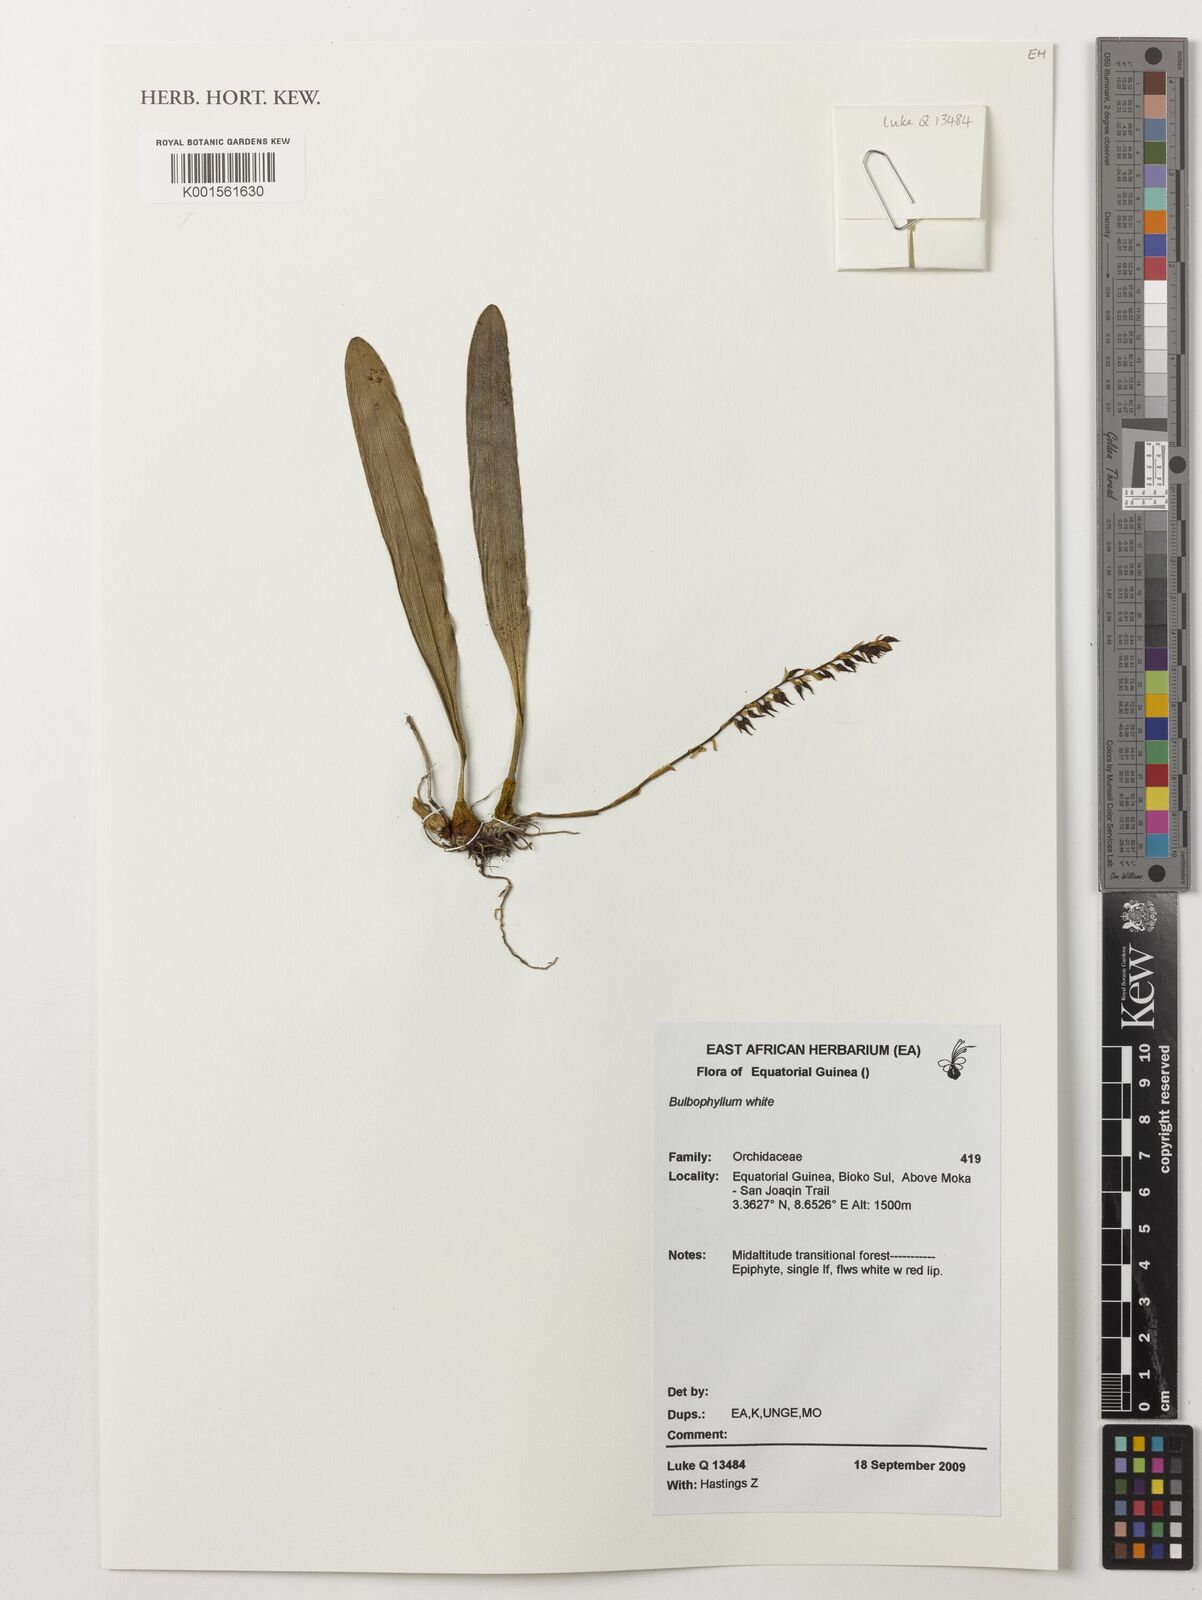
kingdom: Plantae
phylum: Tracheophyta
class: Liliopsida
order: Asparagales
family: Orchidaceae
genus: Bulbophyllum
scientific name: Bulbophyllum
